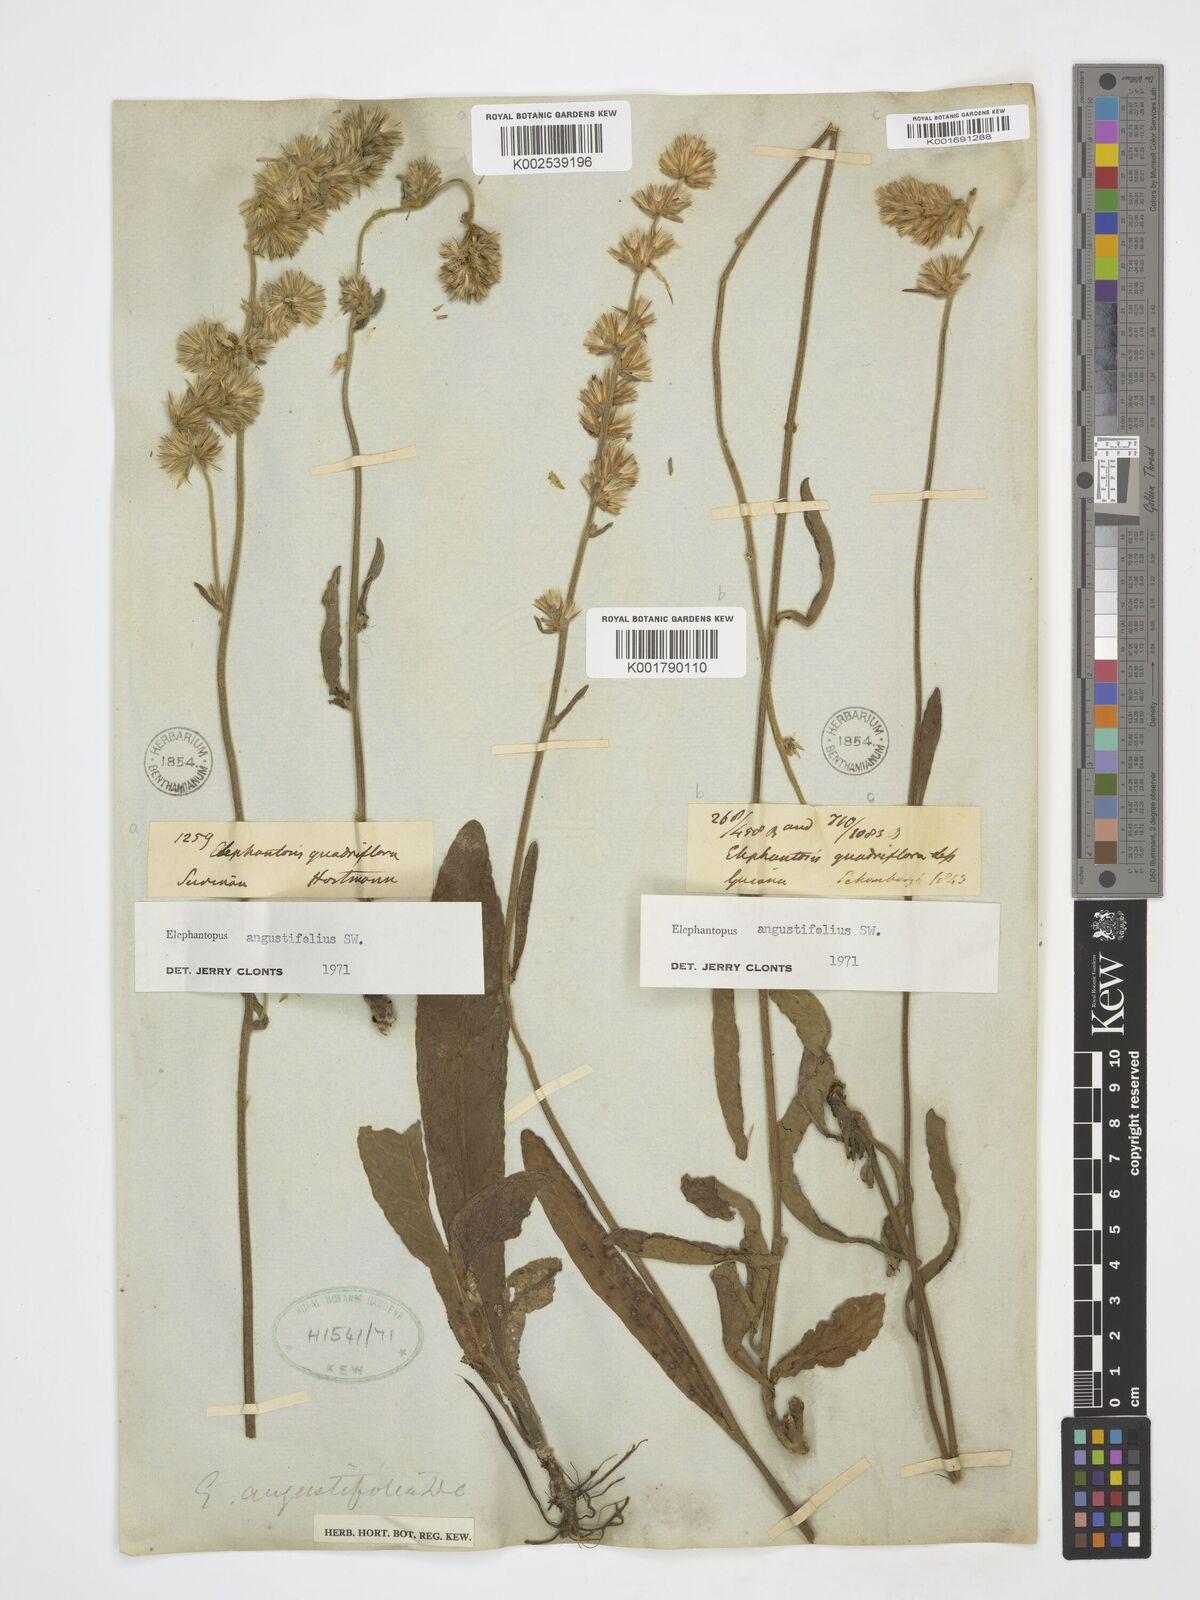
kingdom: Plantae
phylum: Tracheophyta
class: Magnoliopsida
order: Asterales
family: Asteraceae
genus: Orthopappus
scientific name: Orthopappus angustifolius
